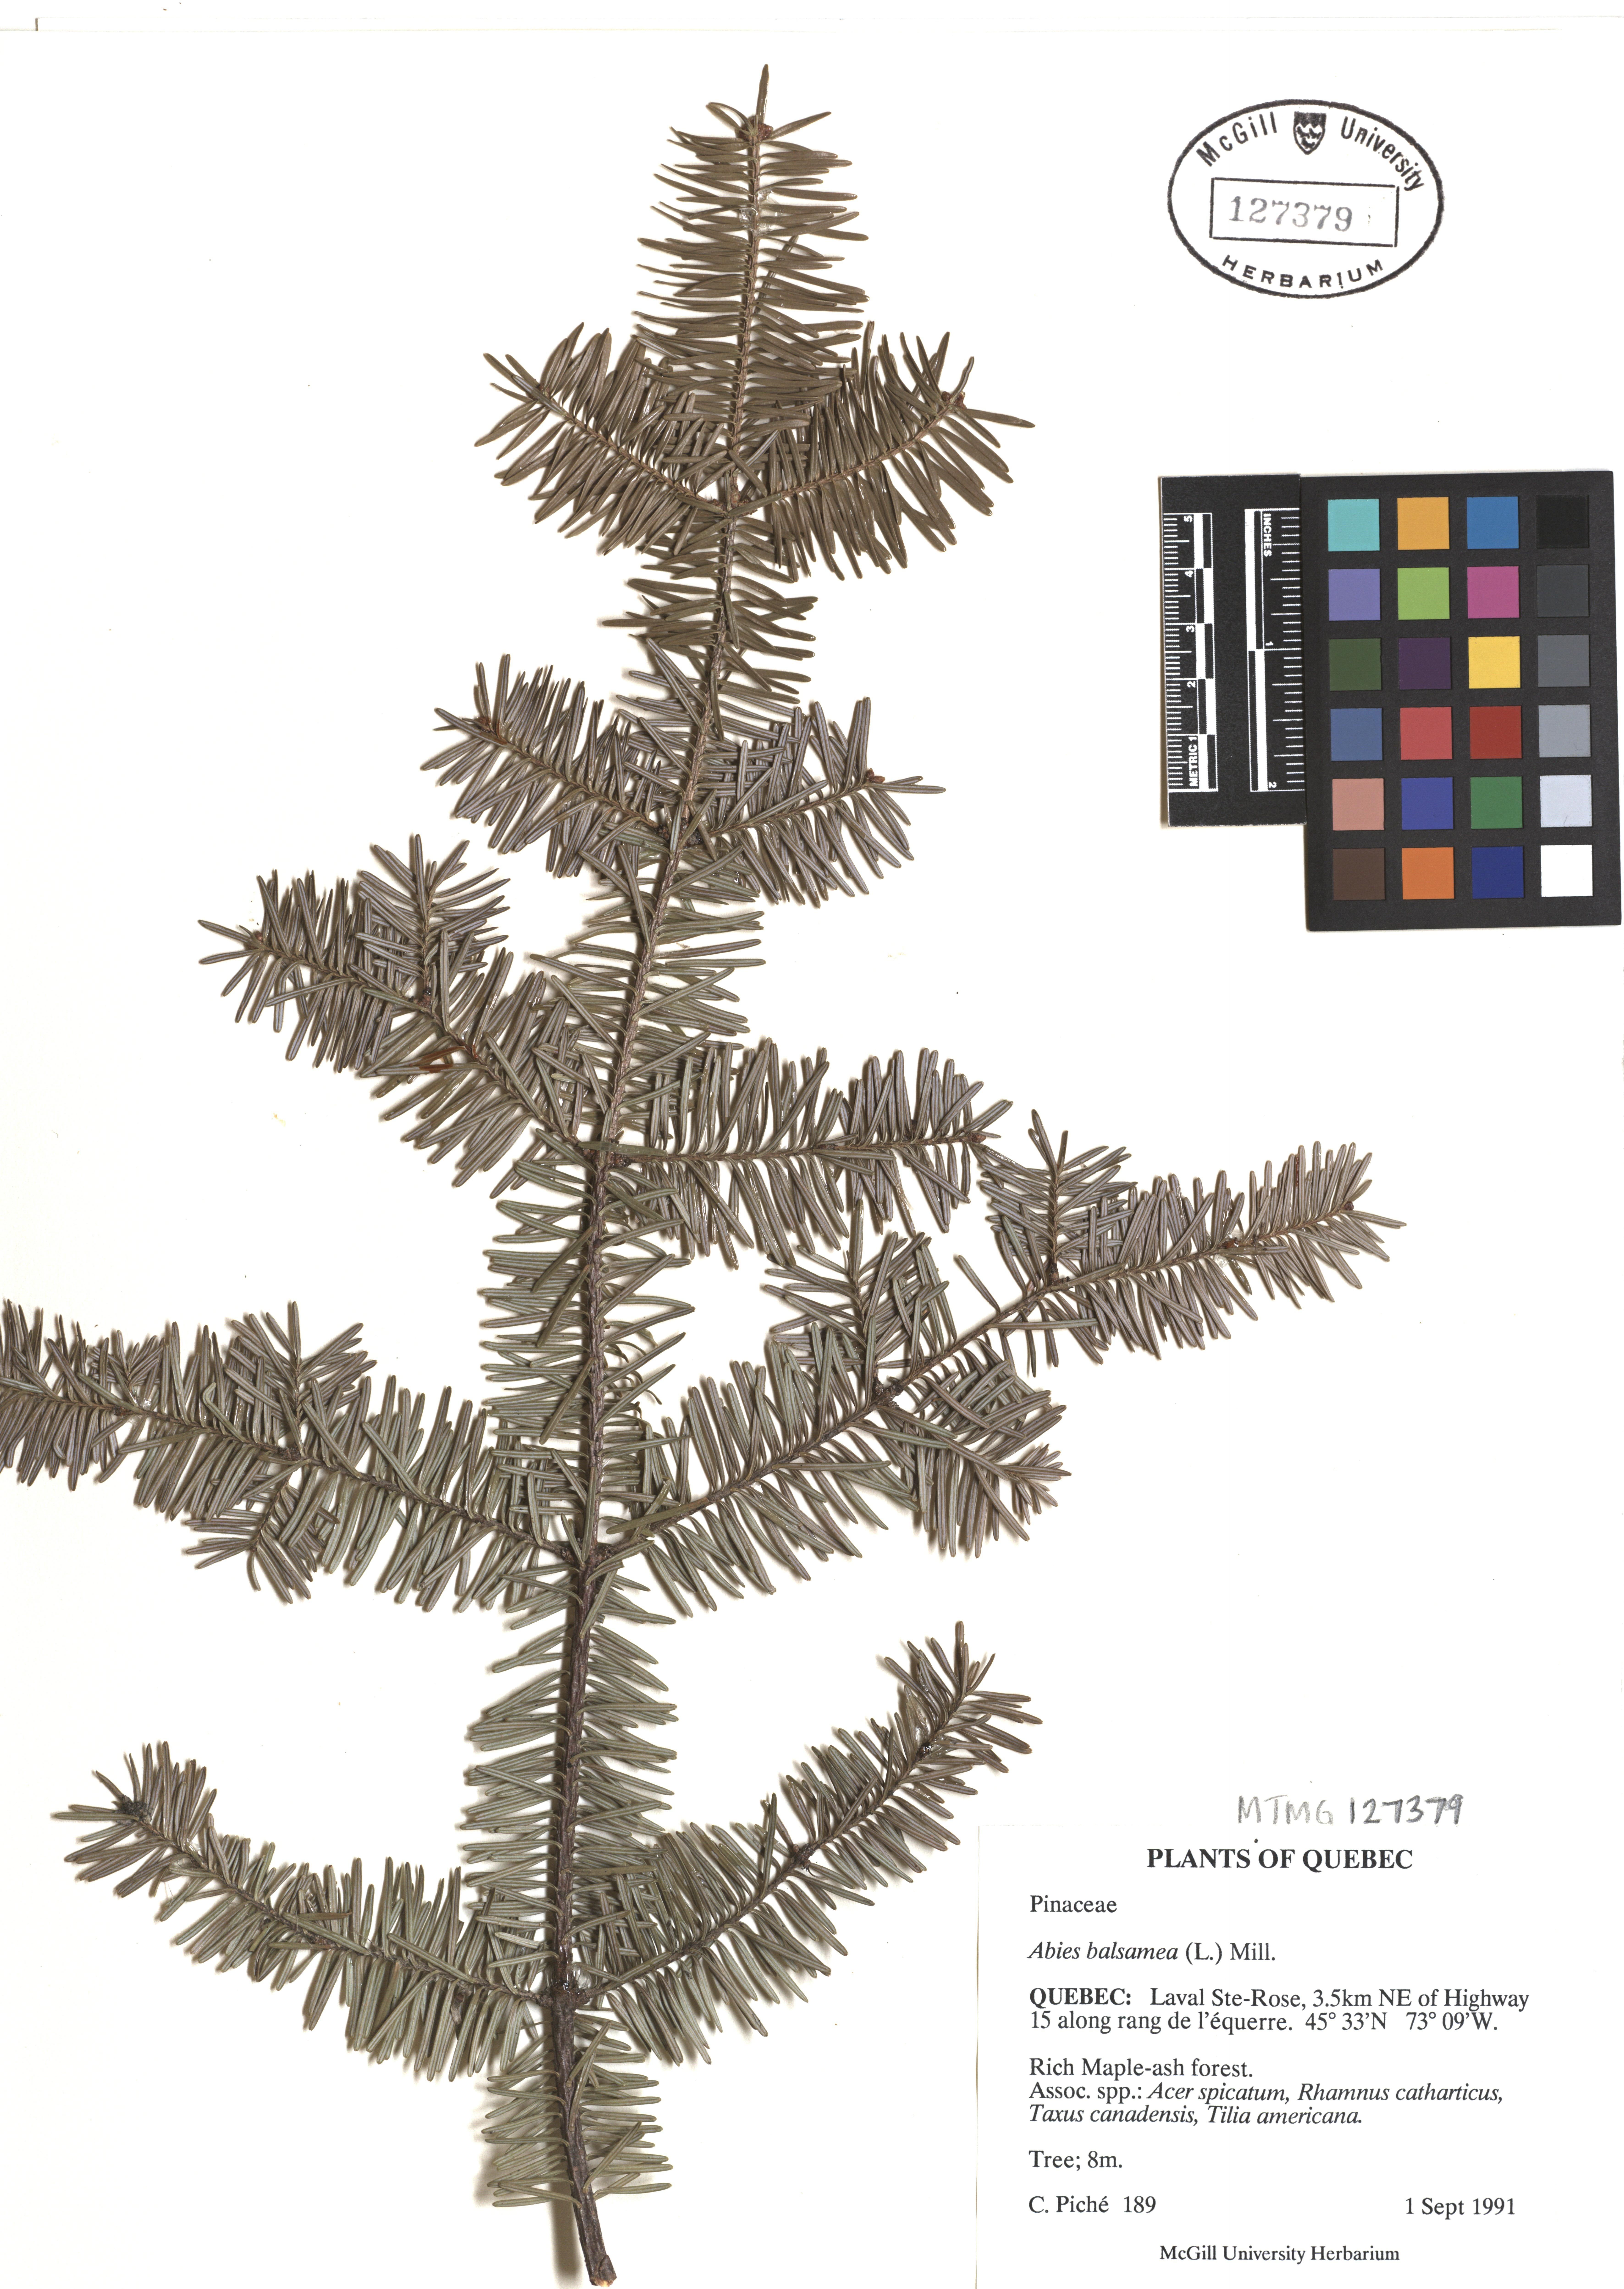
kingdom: Plantae
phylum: Tracheophyta
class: Pinopsida
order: Pinales
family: Pinaceae
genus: Abies
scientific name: Abies balsamea
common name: Balsam fir
